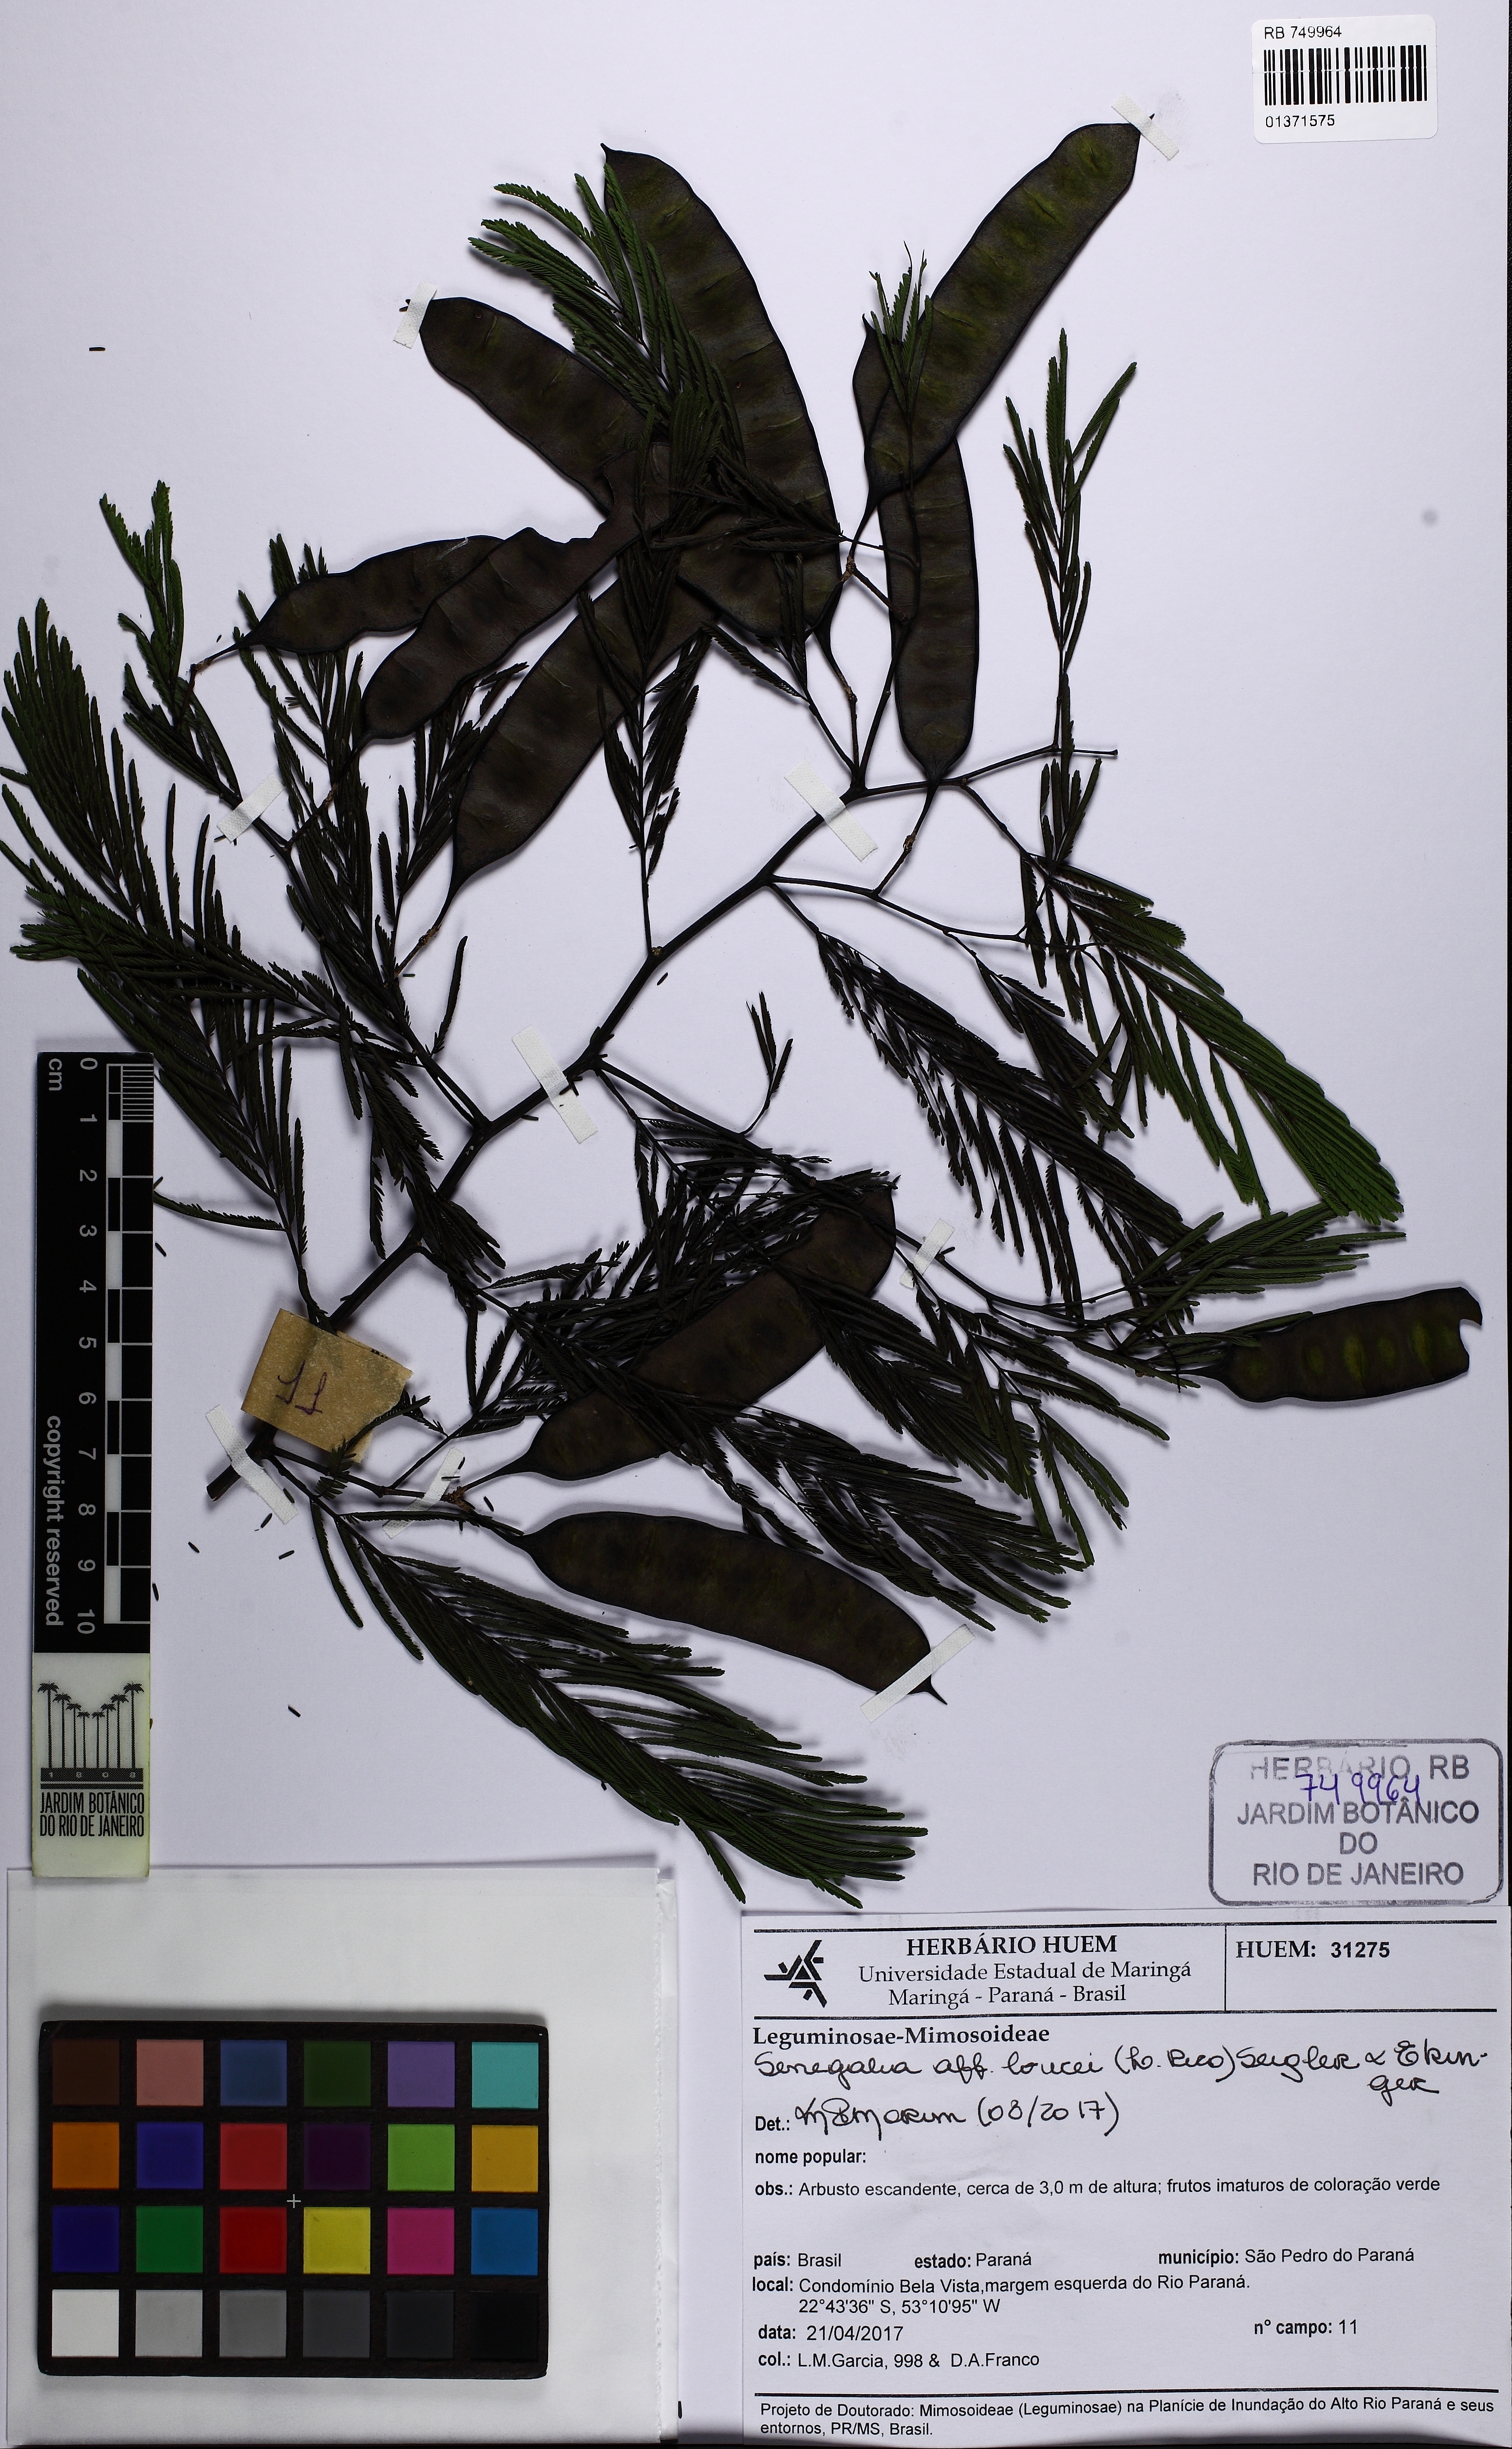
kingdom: Plantae
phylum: Tracheophyta
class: Magnoliopsida
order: Fabales
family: Fabaceae
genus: Senegalia
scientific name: Senegalia hoehnei
